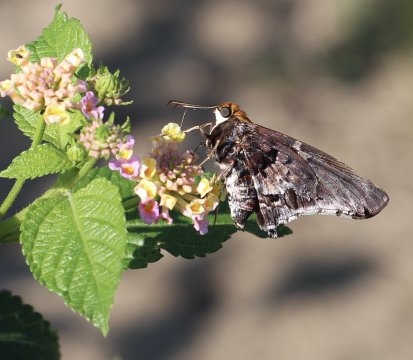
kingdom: Animalia
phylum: Arthropoda
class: Insecta
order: Lepidoptera
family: Hesperiidae
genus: Proteides
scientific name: Proteides mercurius
